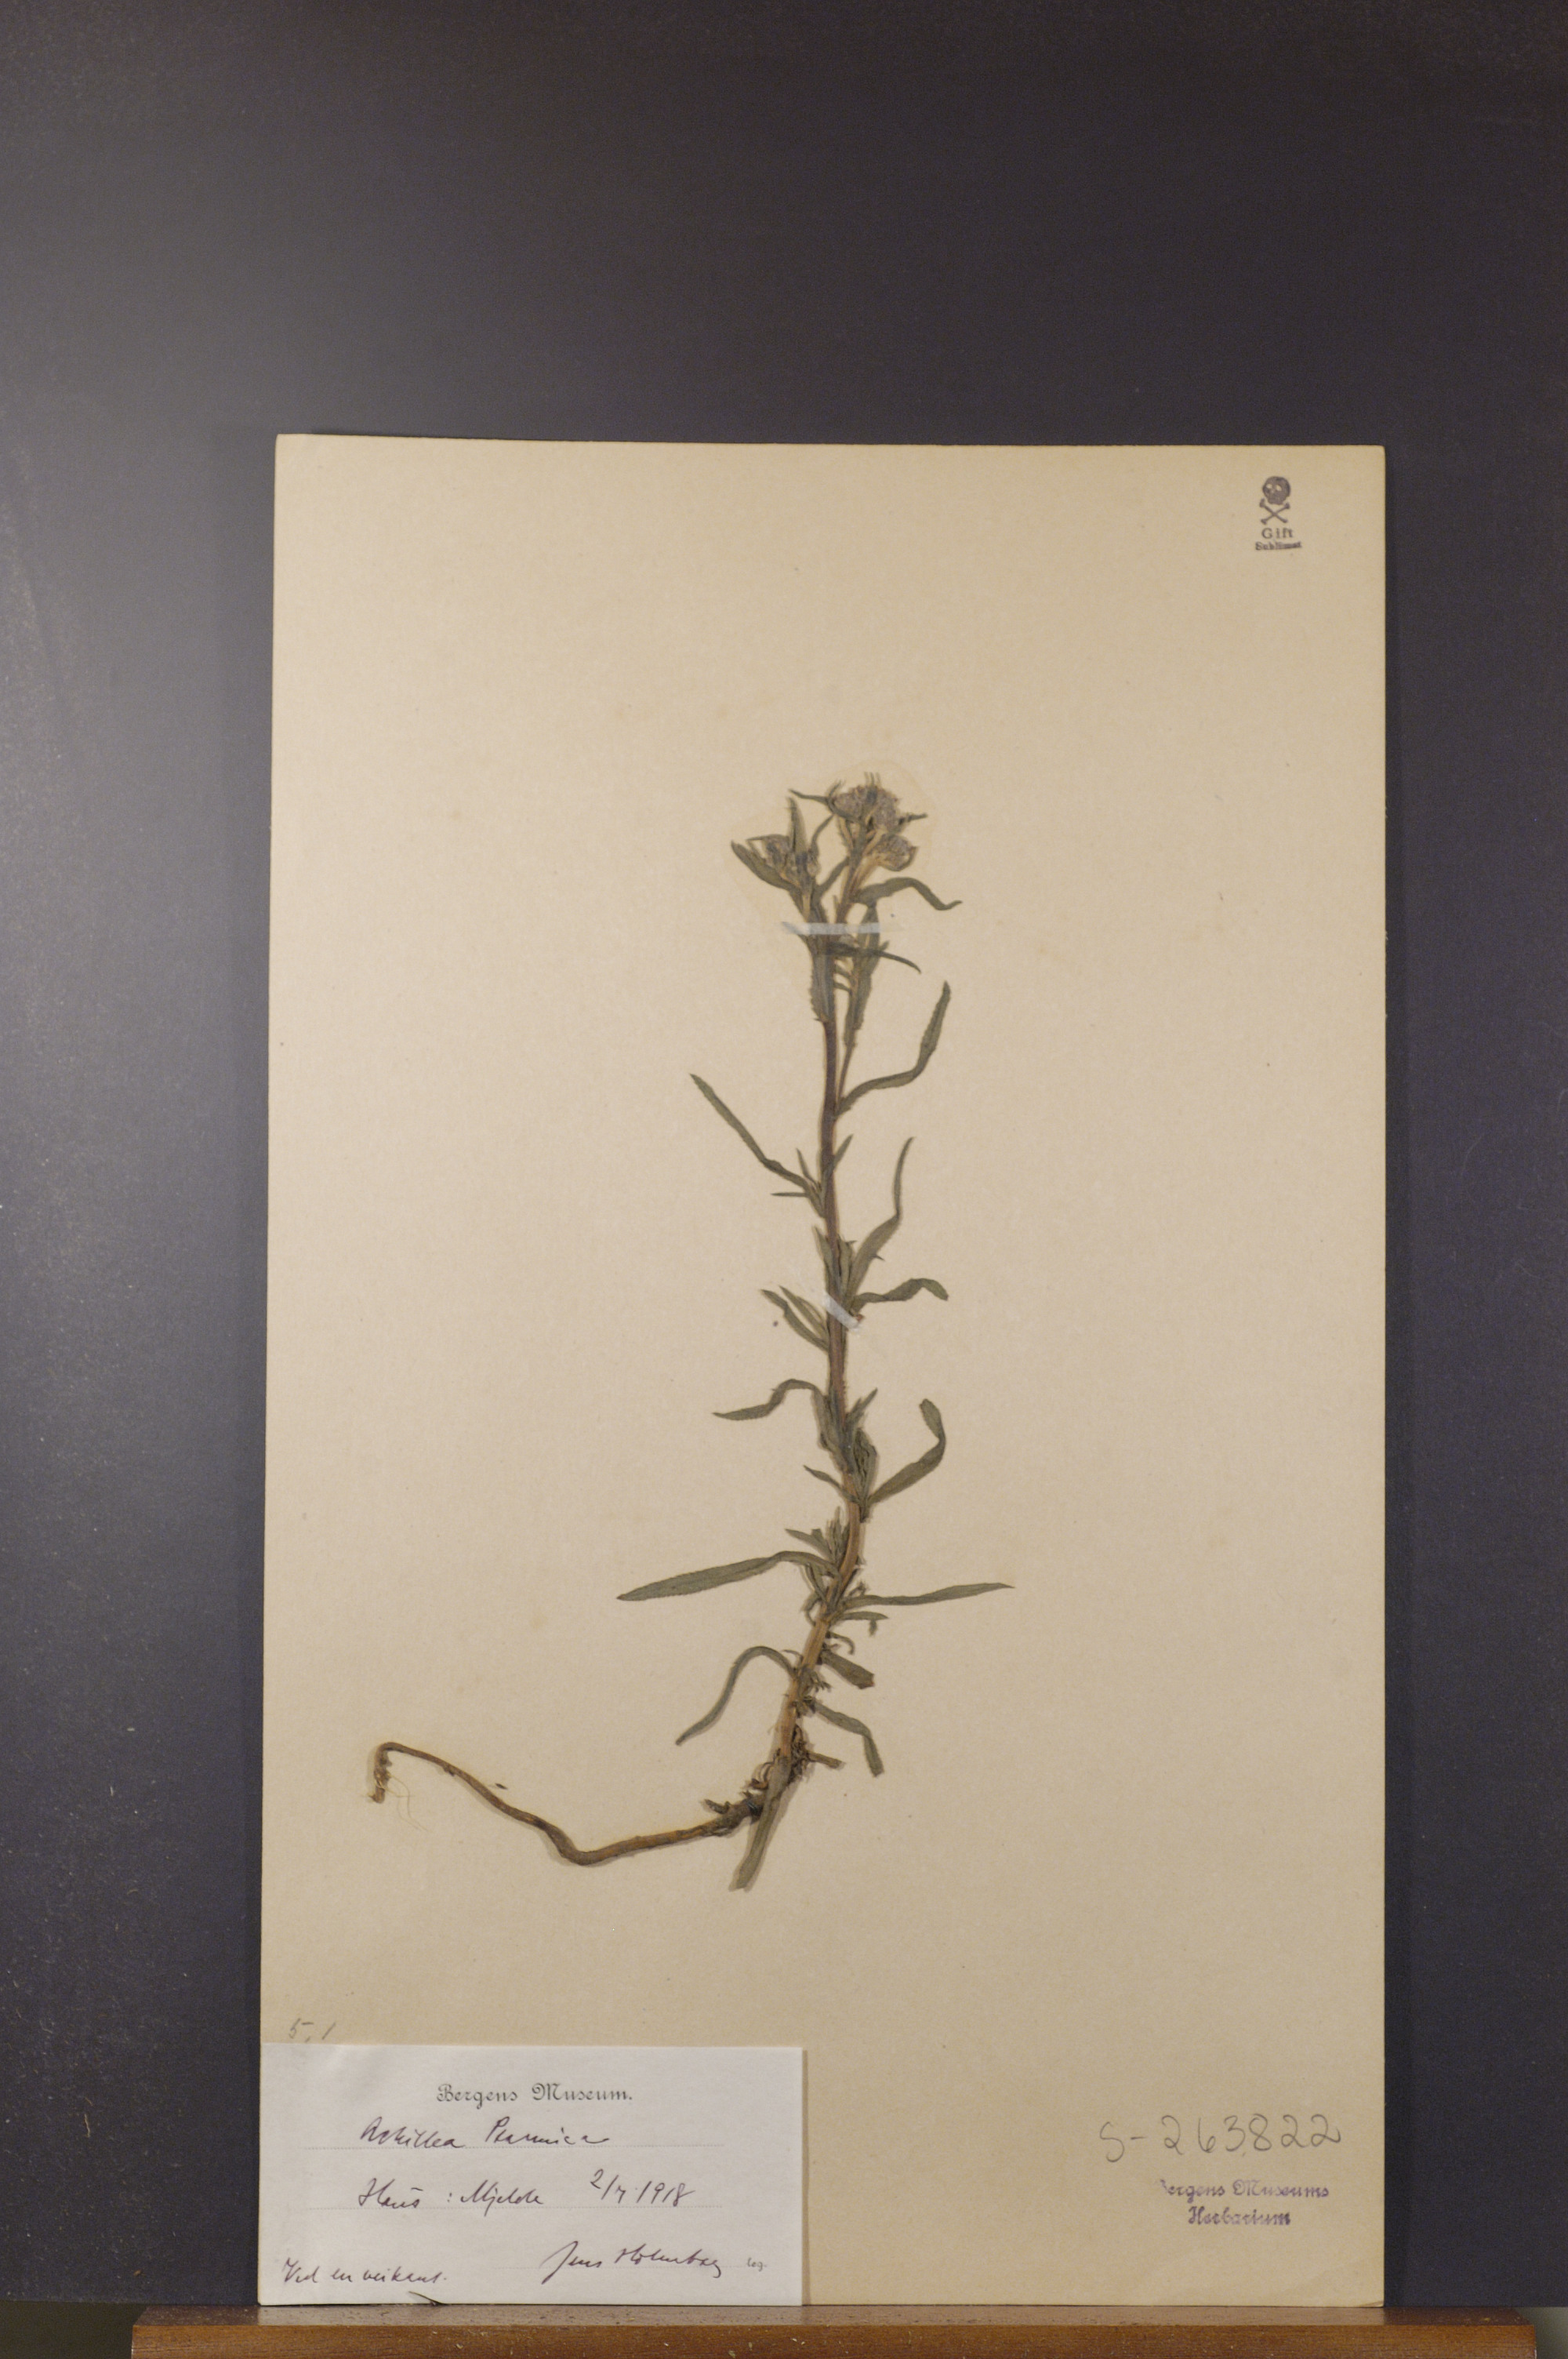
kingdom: Plantae
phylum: Tracheophyta
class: Magnoliopsida
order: Asterales
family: Asteraceae
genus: Achillea
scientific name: Achillea ptarmica
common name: Sneezeweed
